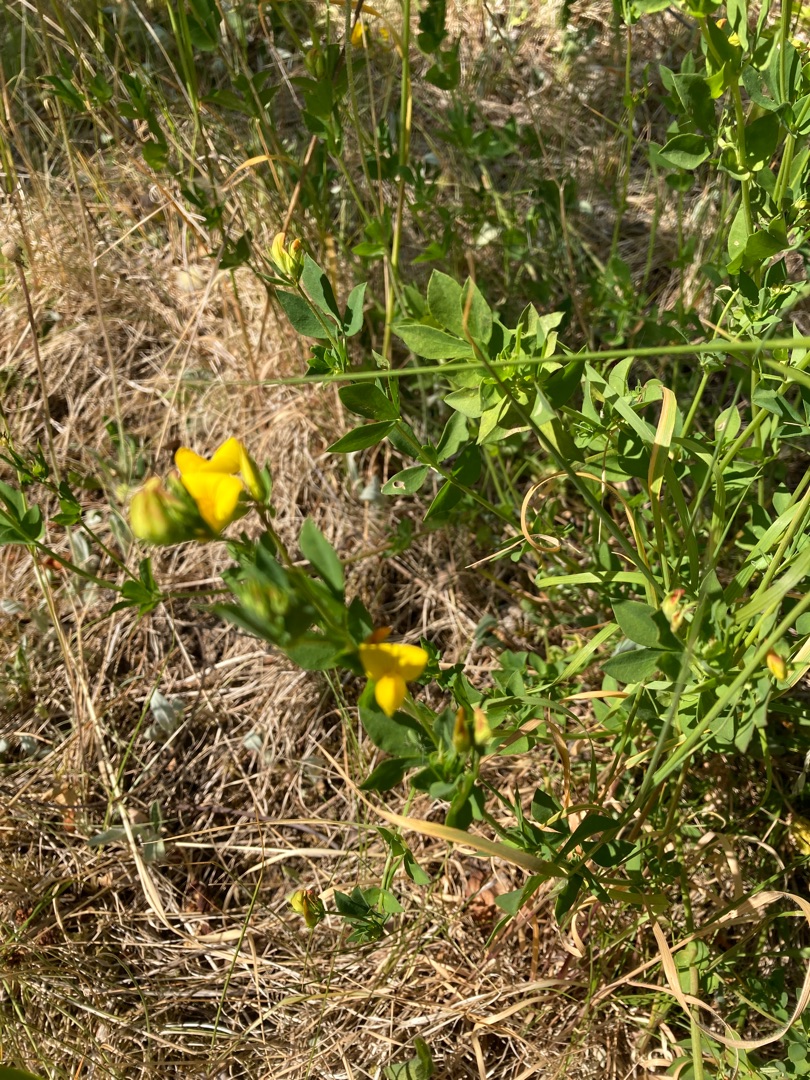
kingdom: Plantae
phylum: Tracheophyta
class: Magnoliopsida
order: Fabales
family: Fabaceae
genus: Lotus
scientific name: Lotus corniculatus
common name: Almindelig kællingetand
